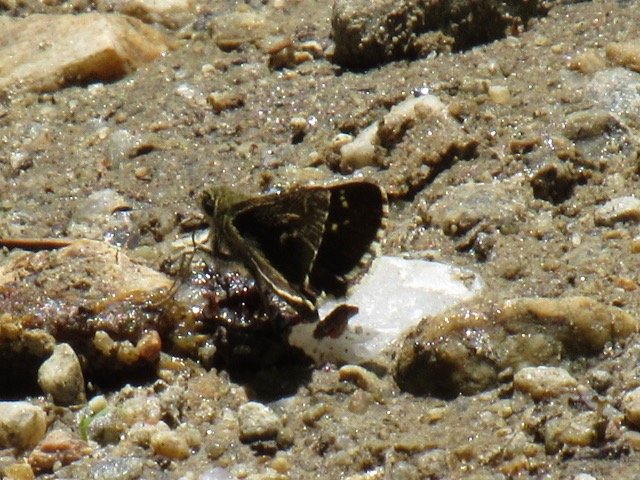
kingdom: Animalia
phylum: Arthropoda
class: Insecta
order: Lepidoptera
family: Hesperiidae
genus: Mastor
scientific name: Mastor hegon
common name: Pepper and Salt Skipper
